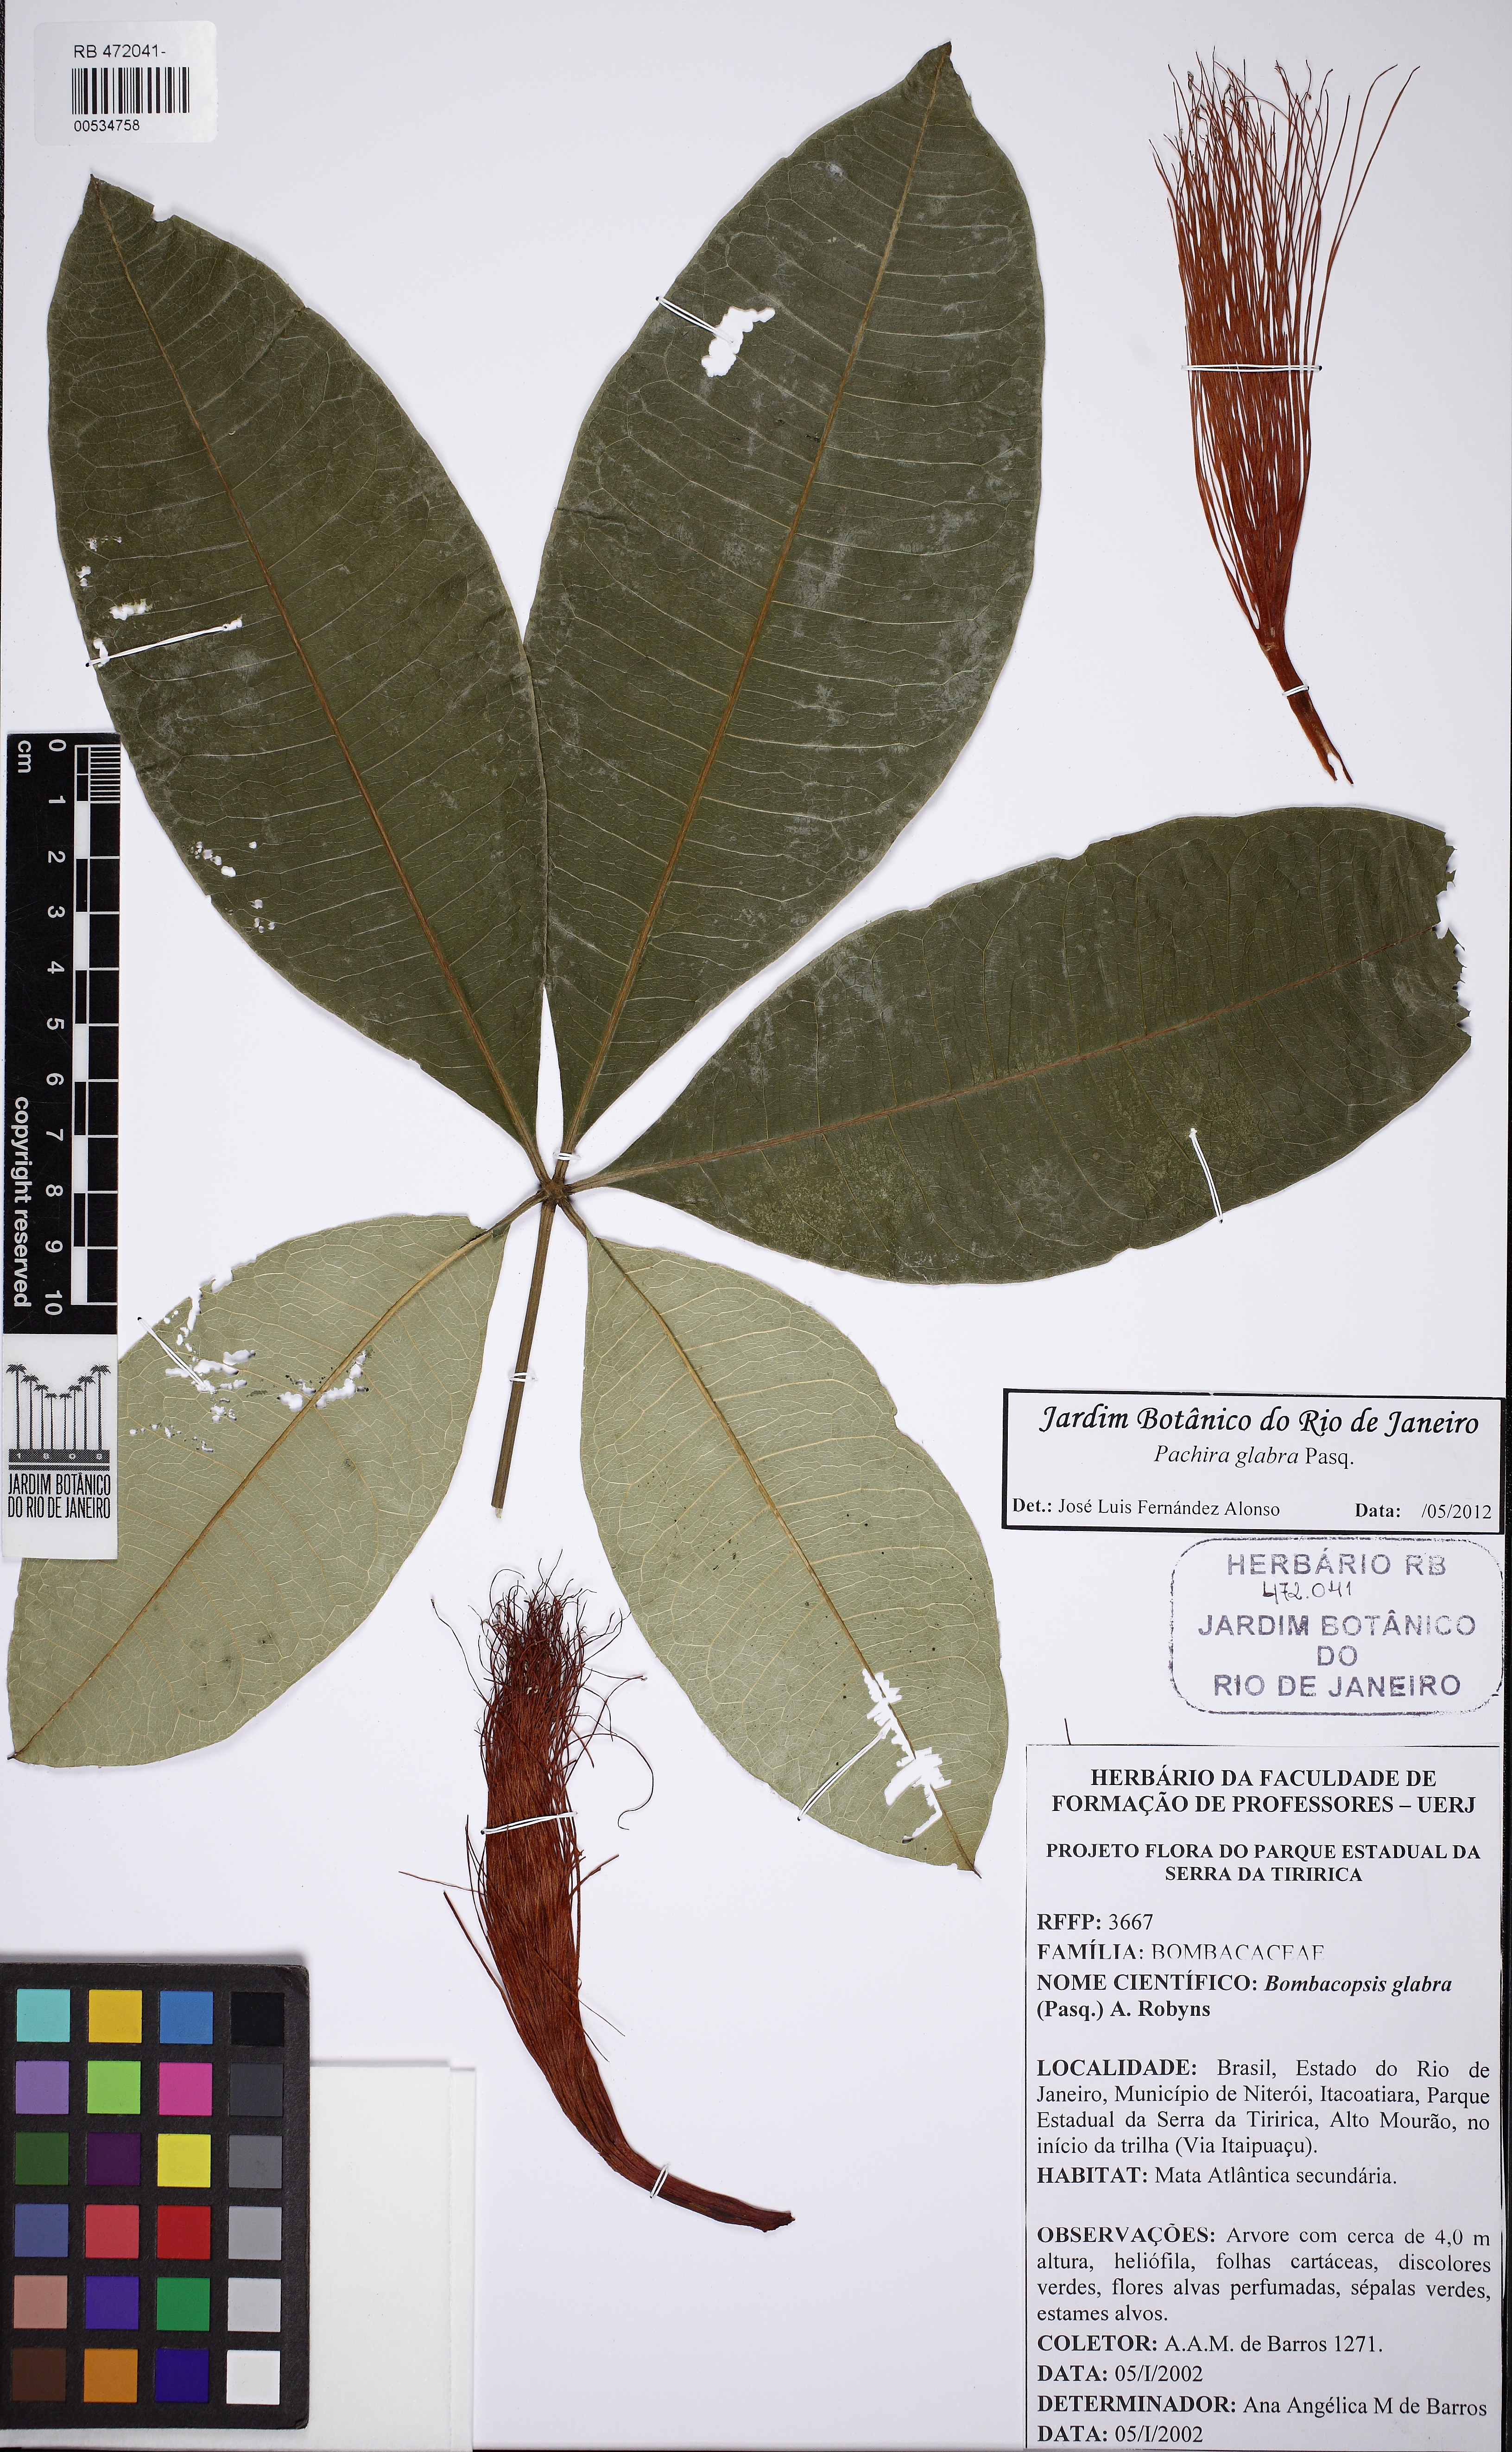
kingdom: Plantae
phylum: Tracheophyta
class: Magnoliopsida
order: Malvales
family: Malvaceae
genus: Pachira
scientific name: Pachira glabra
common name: Moneytree
